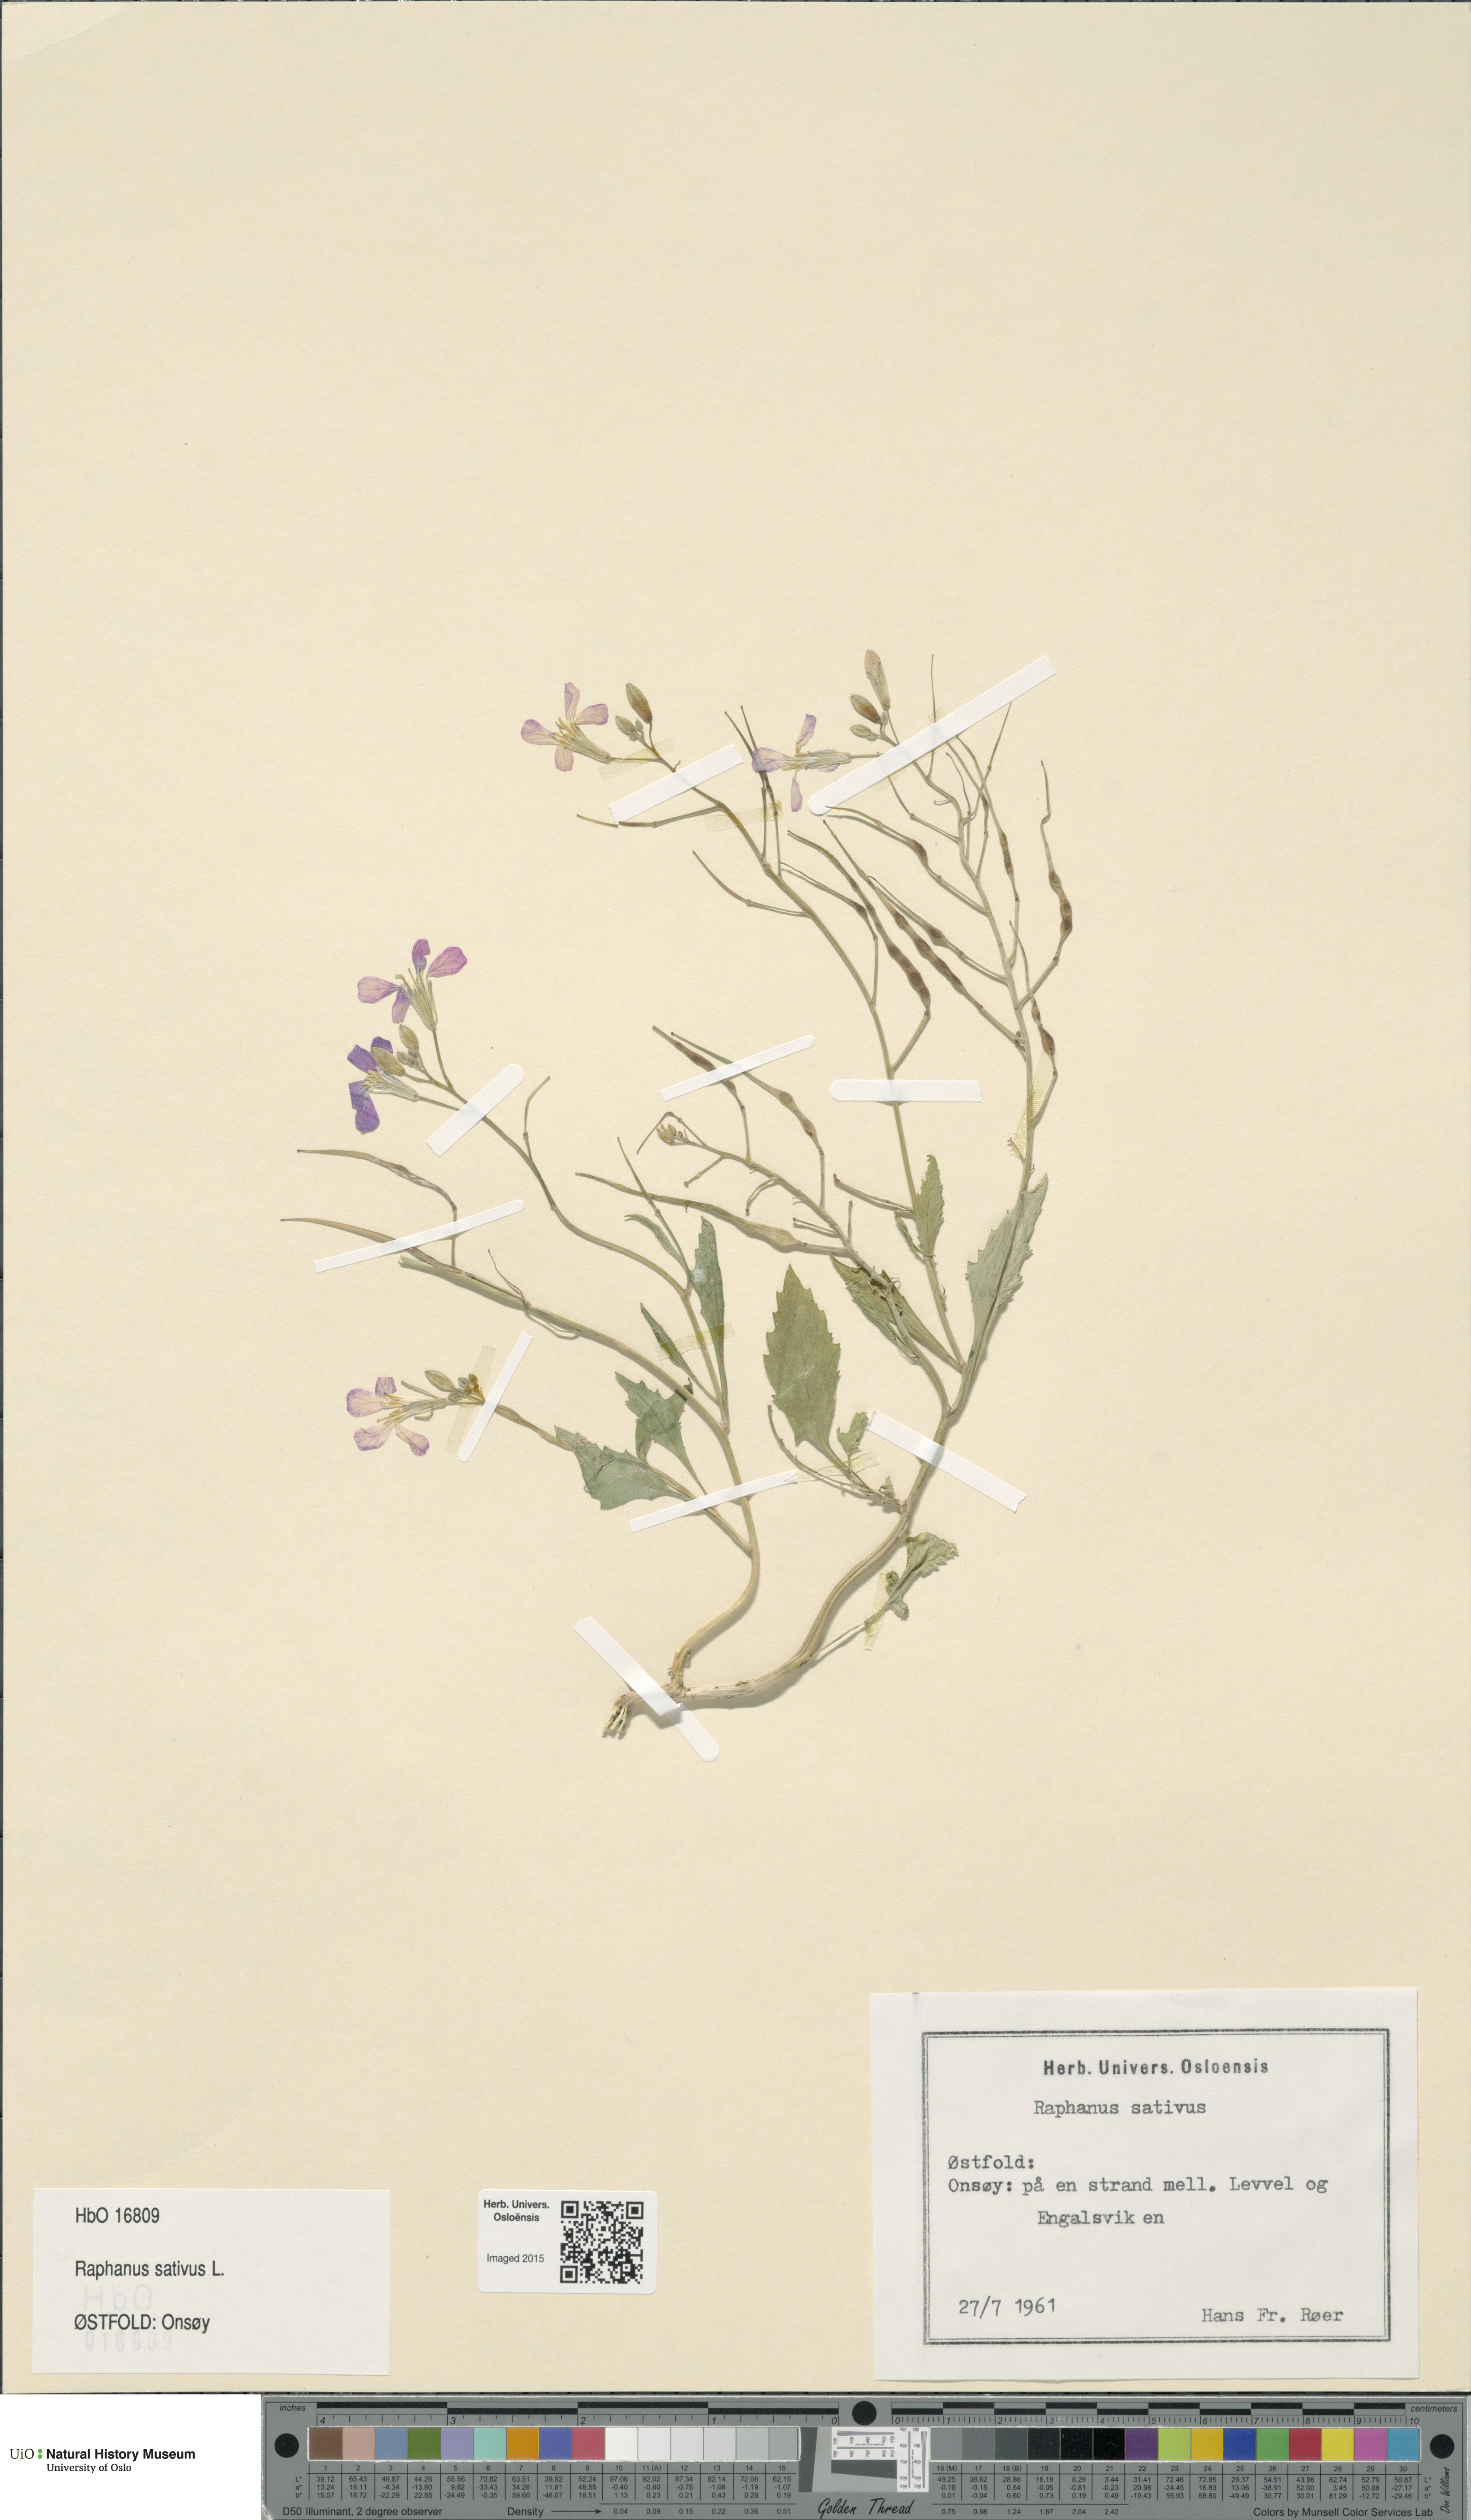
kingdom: Plantae
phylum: Tracheophyta
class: Magnoliopsida
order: Brassicales
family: Brassicaceae
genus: Raphanus
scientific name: Raphanus sativus
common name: Cultivated radish
